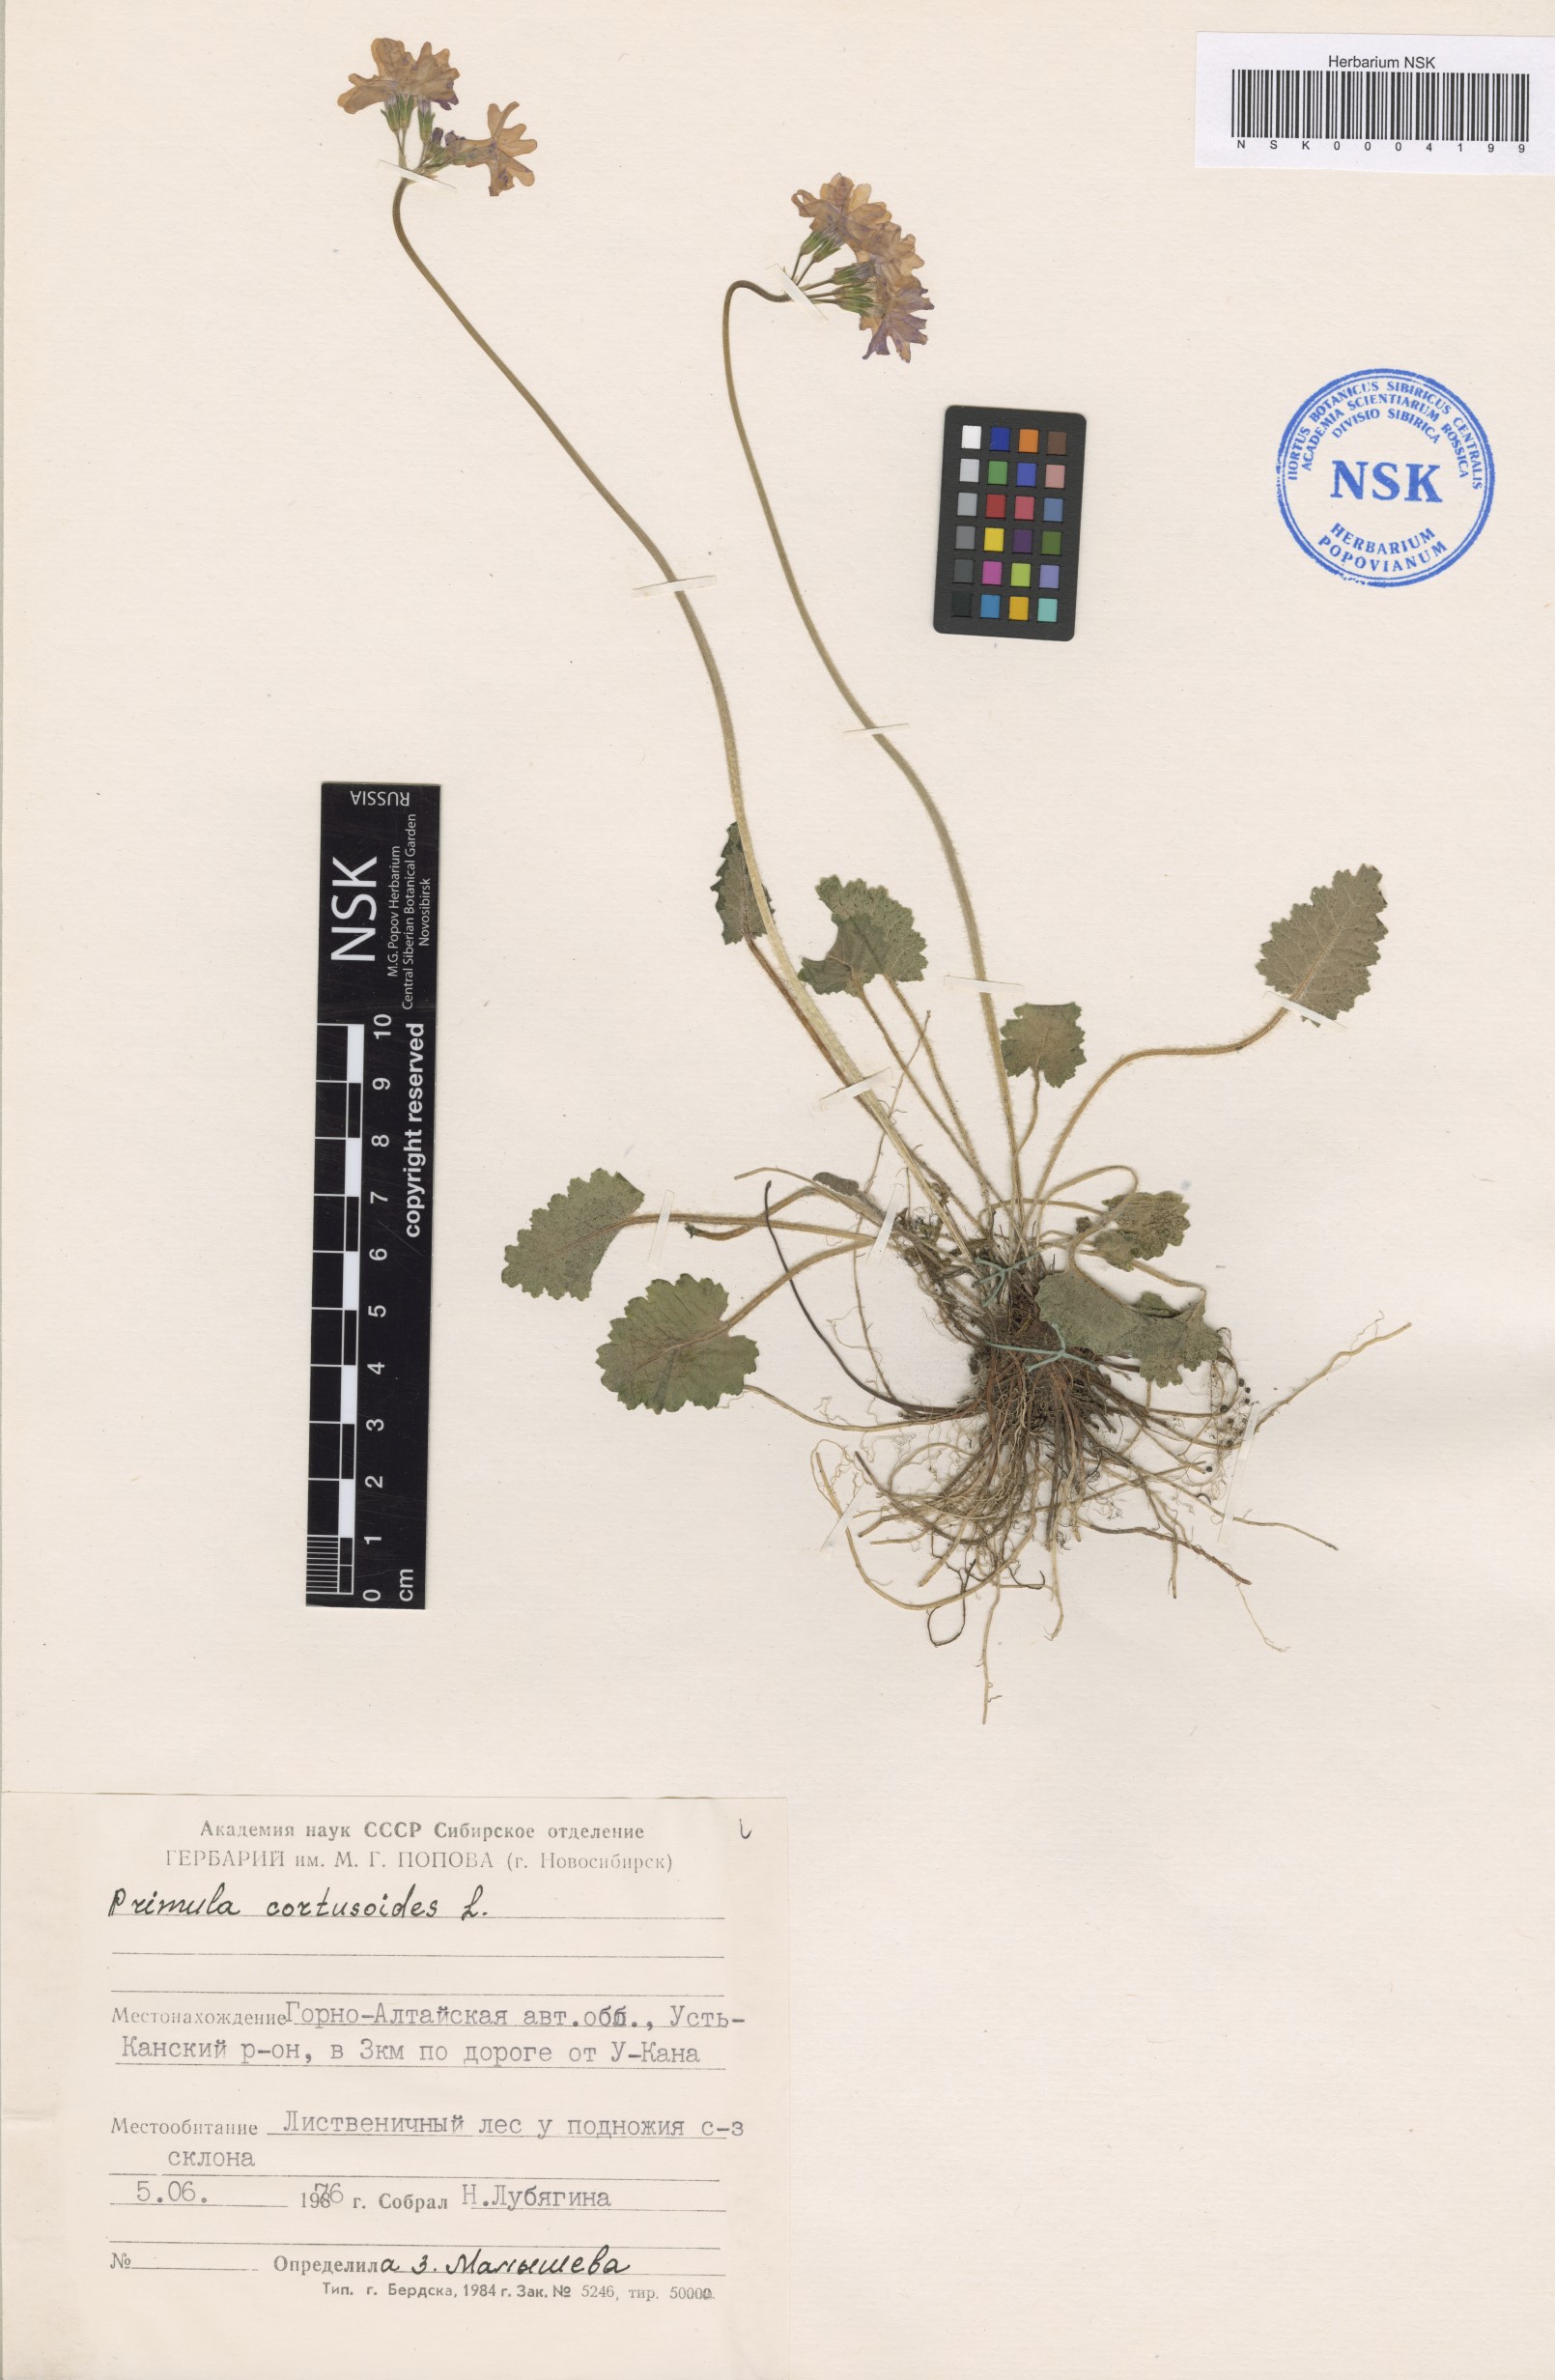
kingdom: Plantae
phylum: Tracheophyta
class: Magnoliopsida
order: Ericales
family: Primulaceae
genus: Primula
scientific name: Primula cortusoides
